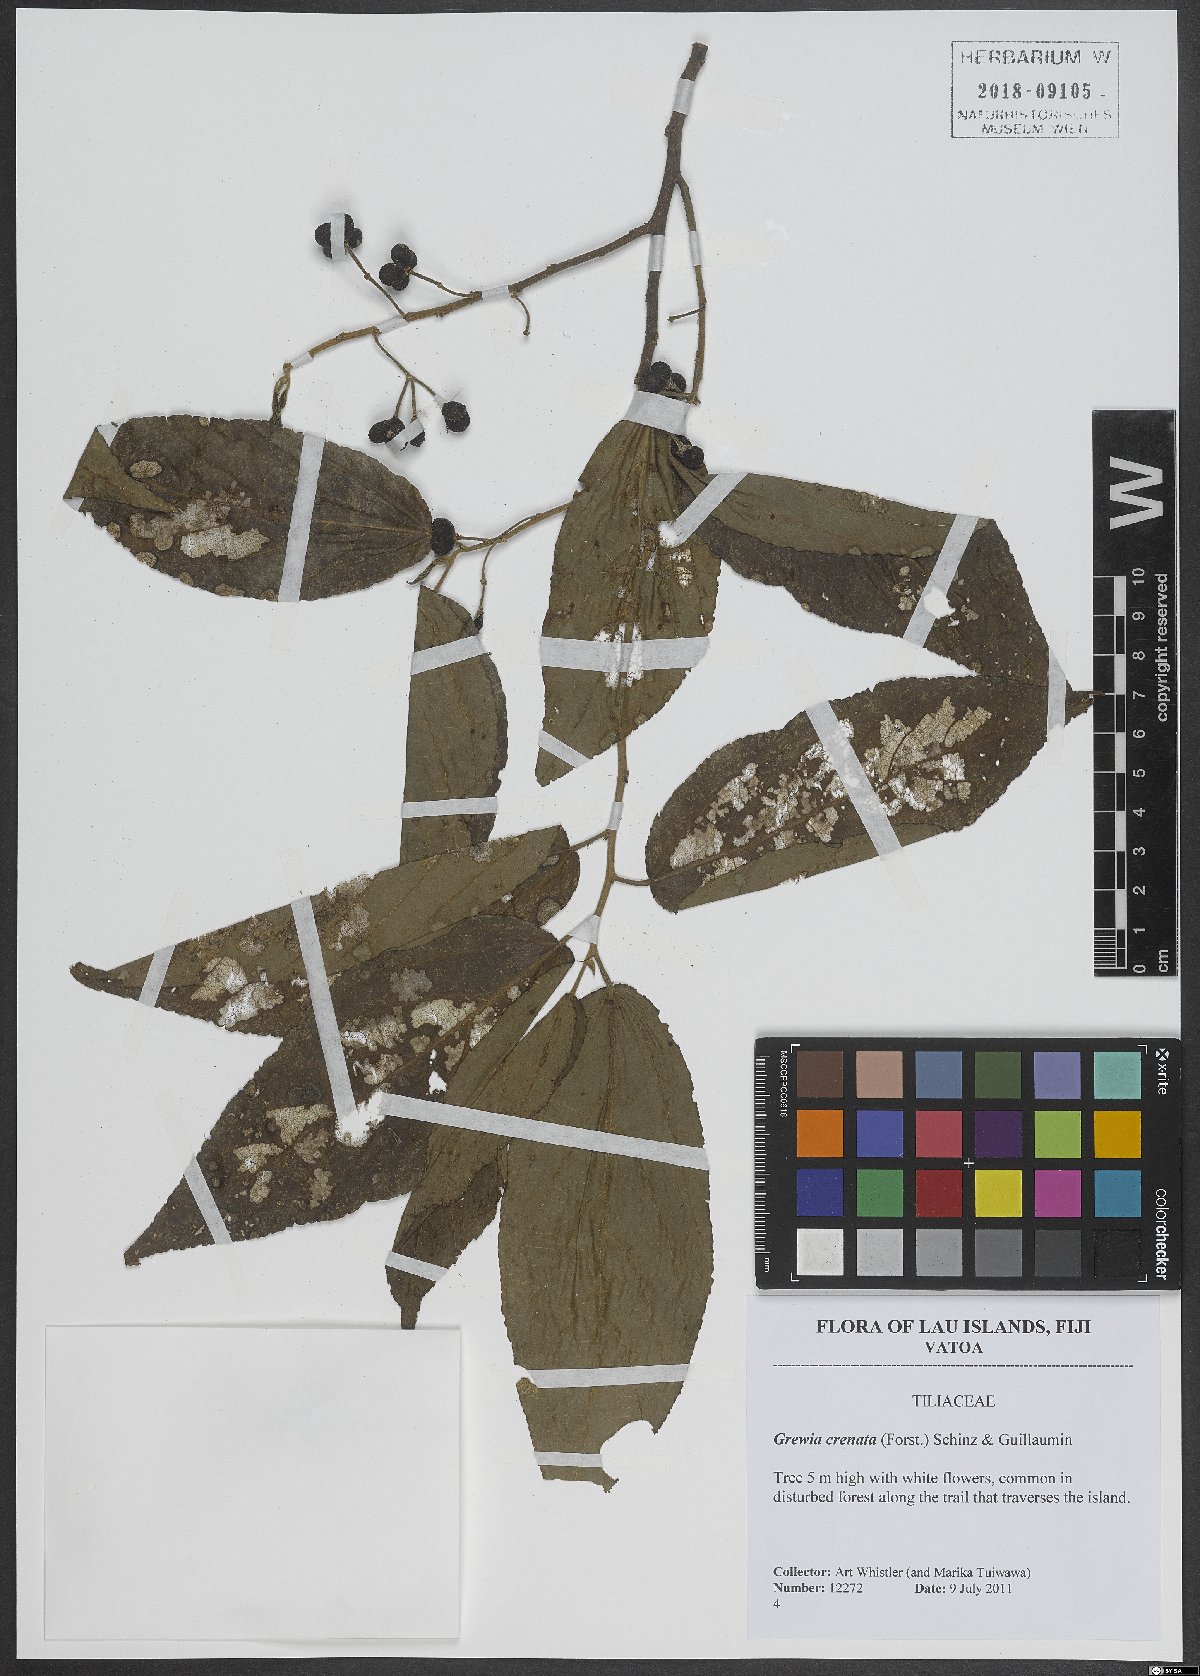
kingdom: Plantae
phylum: Tracheophyta
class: Magnoliopsida
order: Malvales
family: Malvaceae
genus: Grewia
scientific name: Grewia crenata
